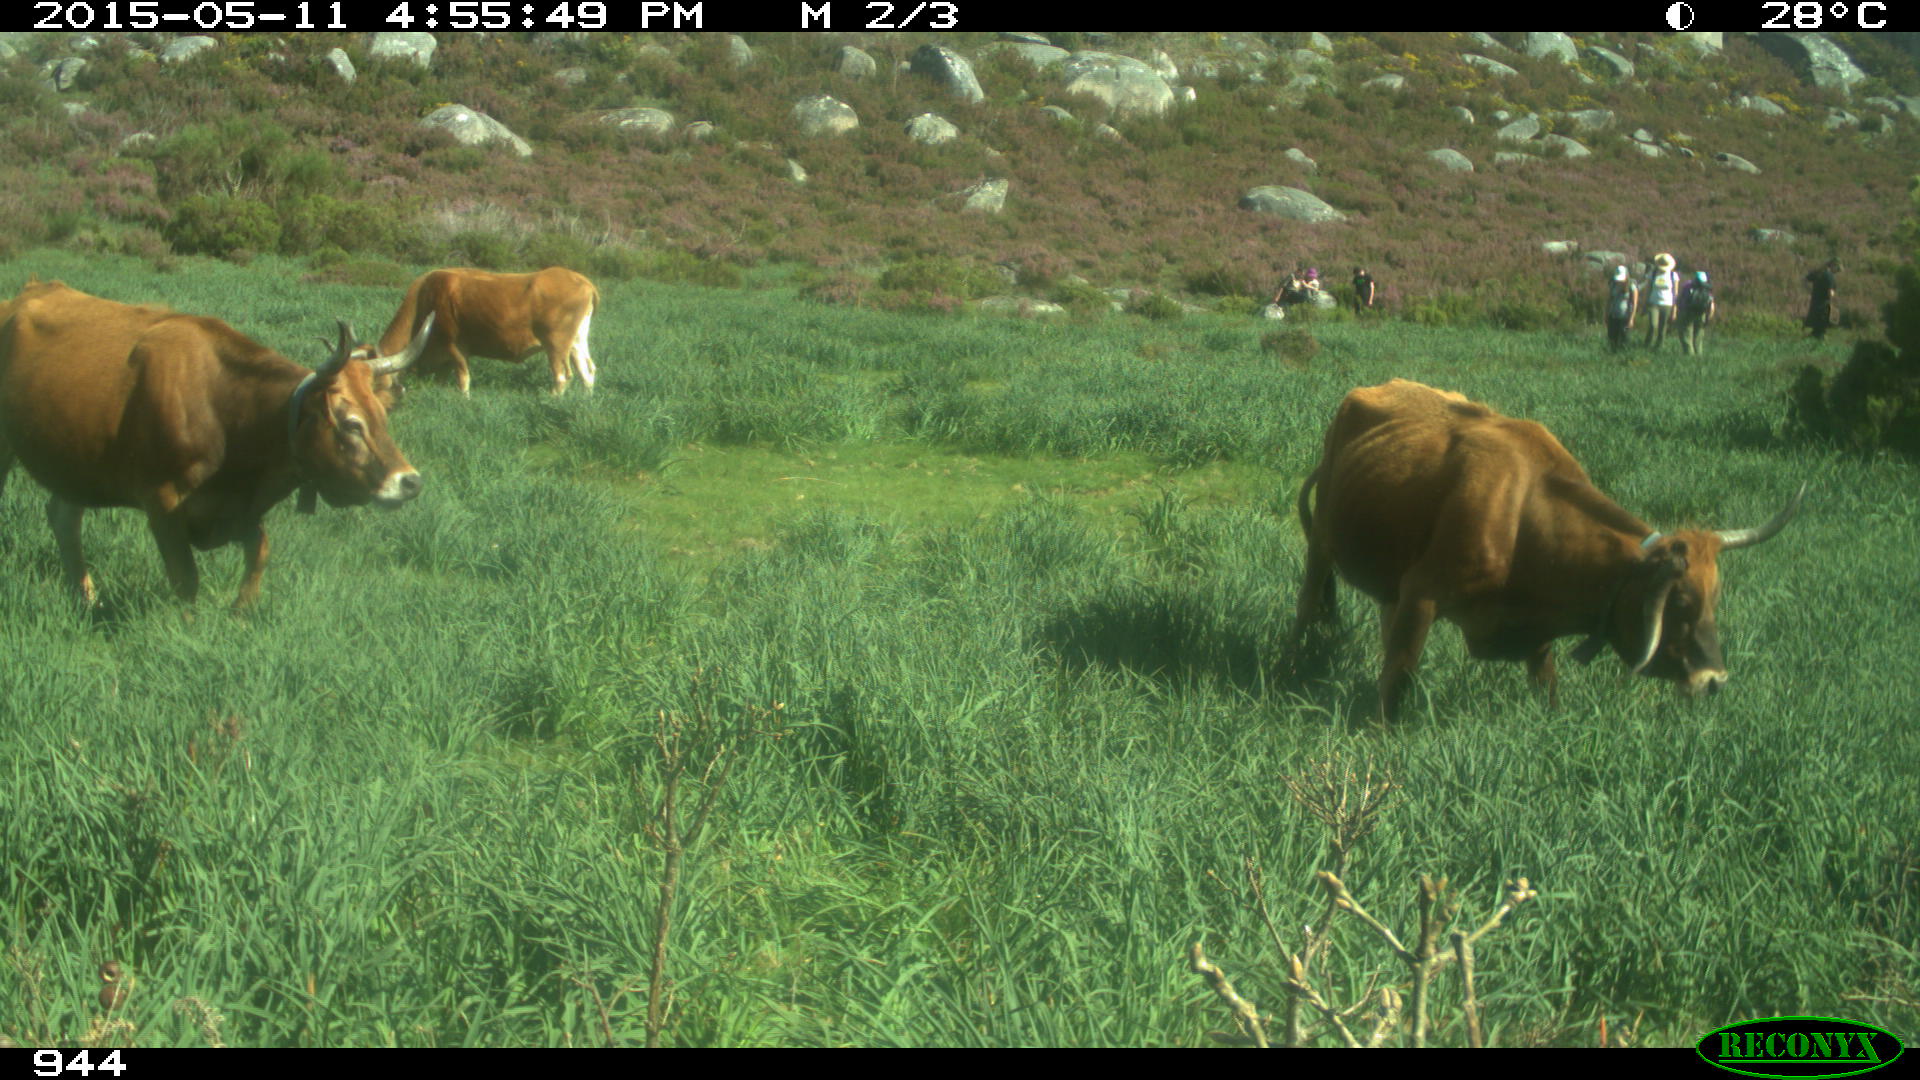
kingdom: Animalia
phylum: Chordata
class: Mammalia
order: Artiodactyla
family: Bovidae
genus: Bos
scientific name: Bos taurus
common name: Domesticated cattle
